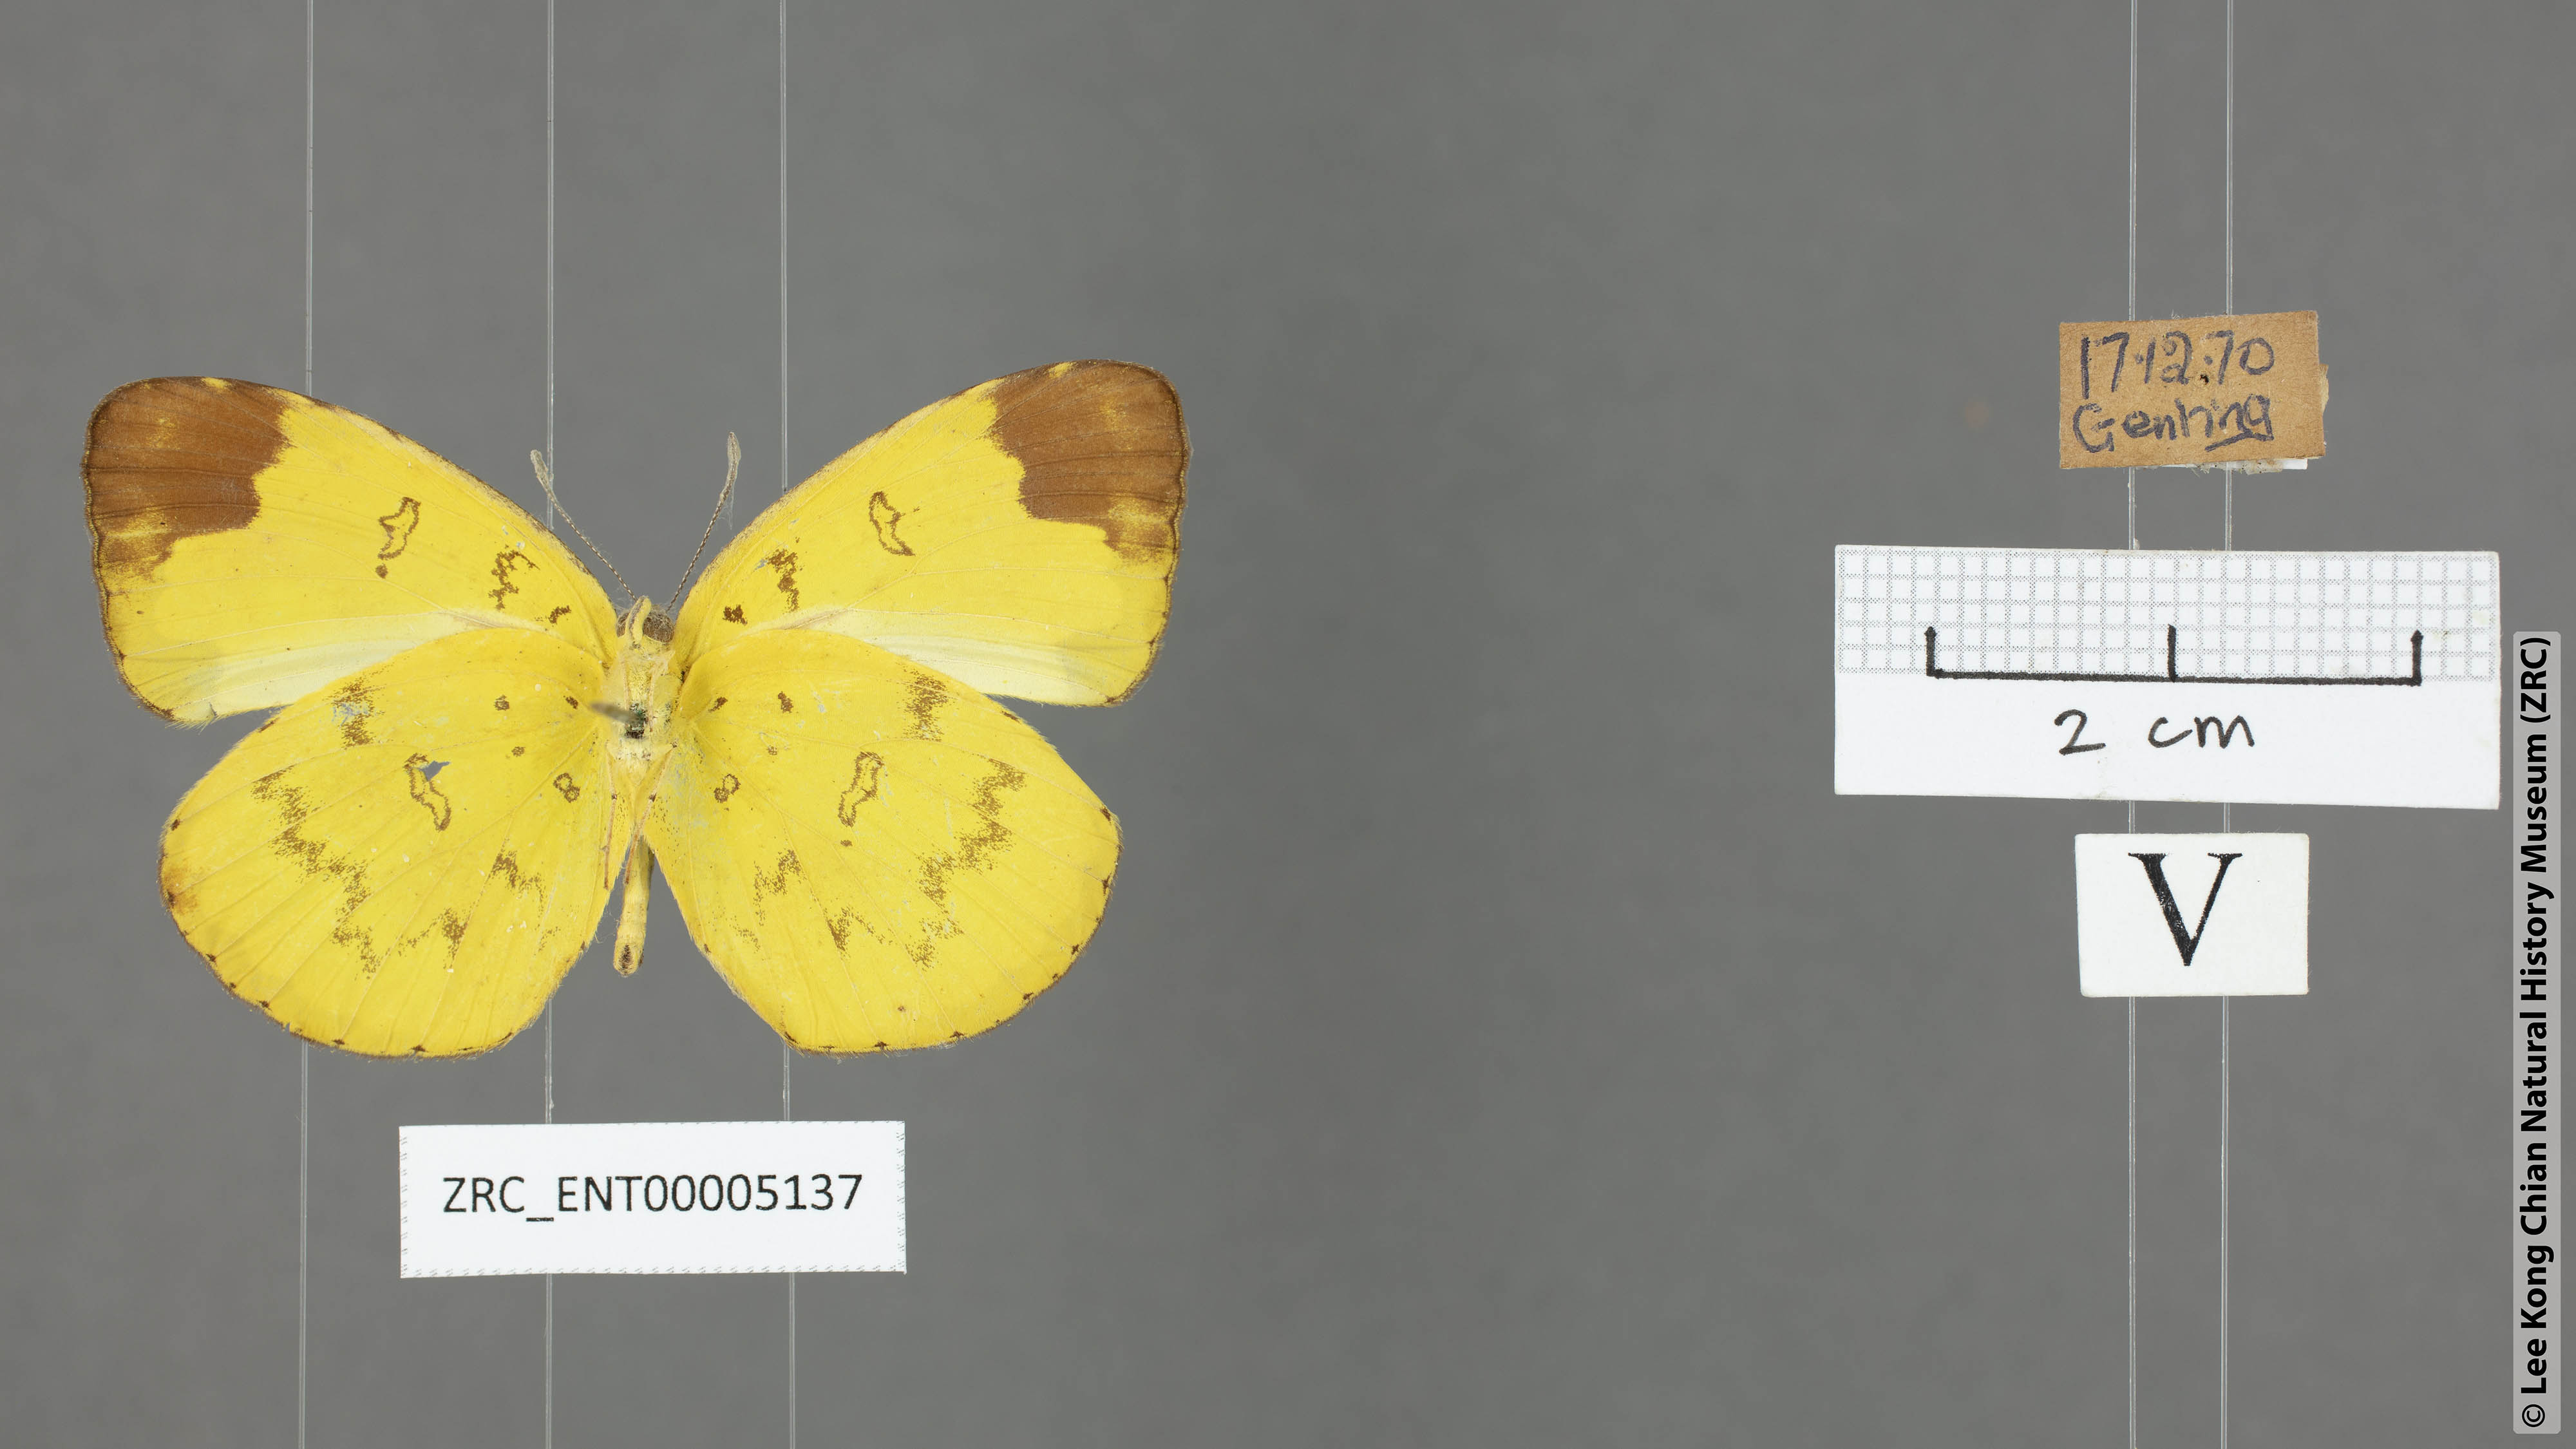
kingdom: Animalia
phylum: Arthropoda
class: Insecta
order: Lepidoptera
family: Pieridae
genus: Eurema
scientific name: Eurema simulatrix
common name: Hill grass yellow
